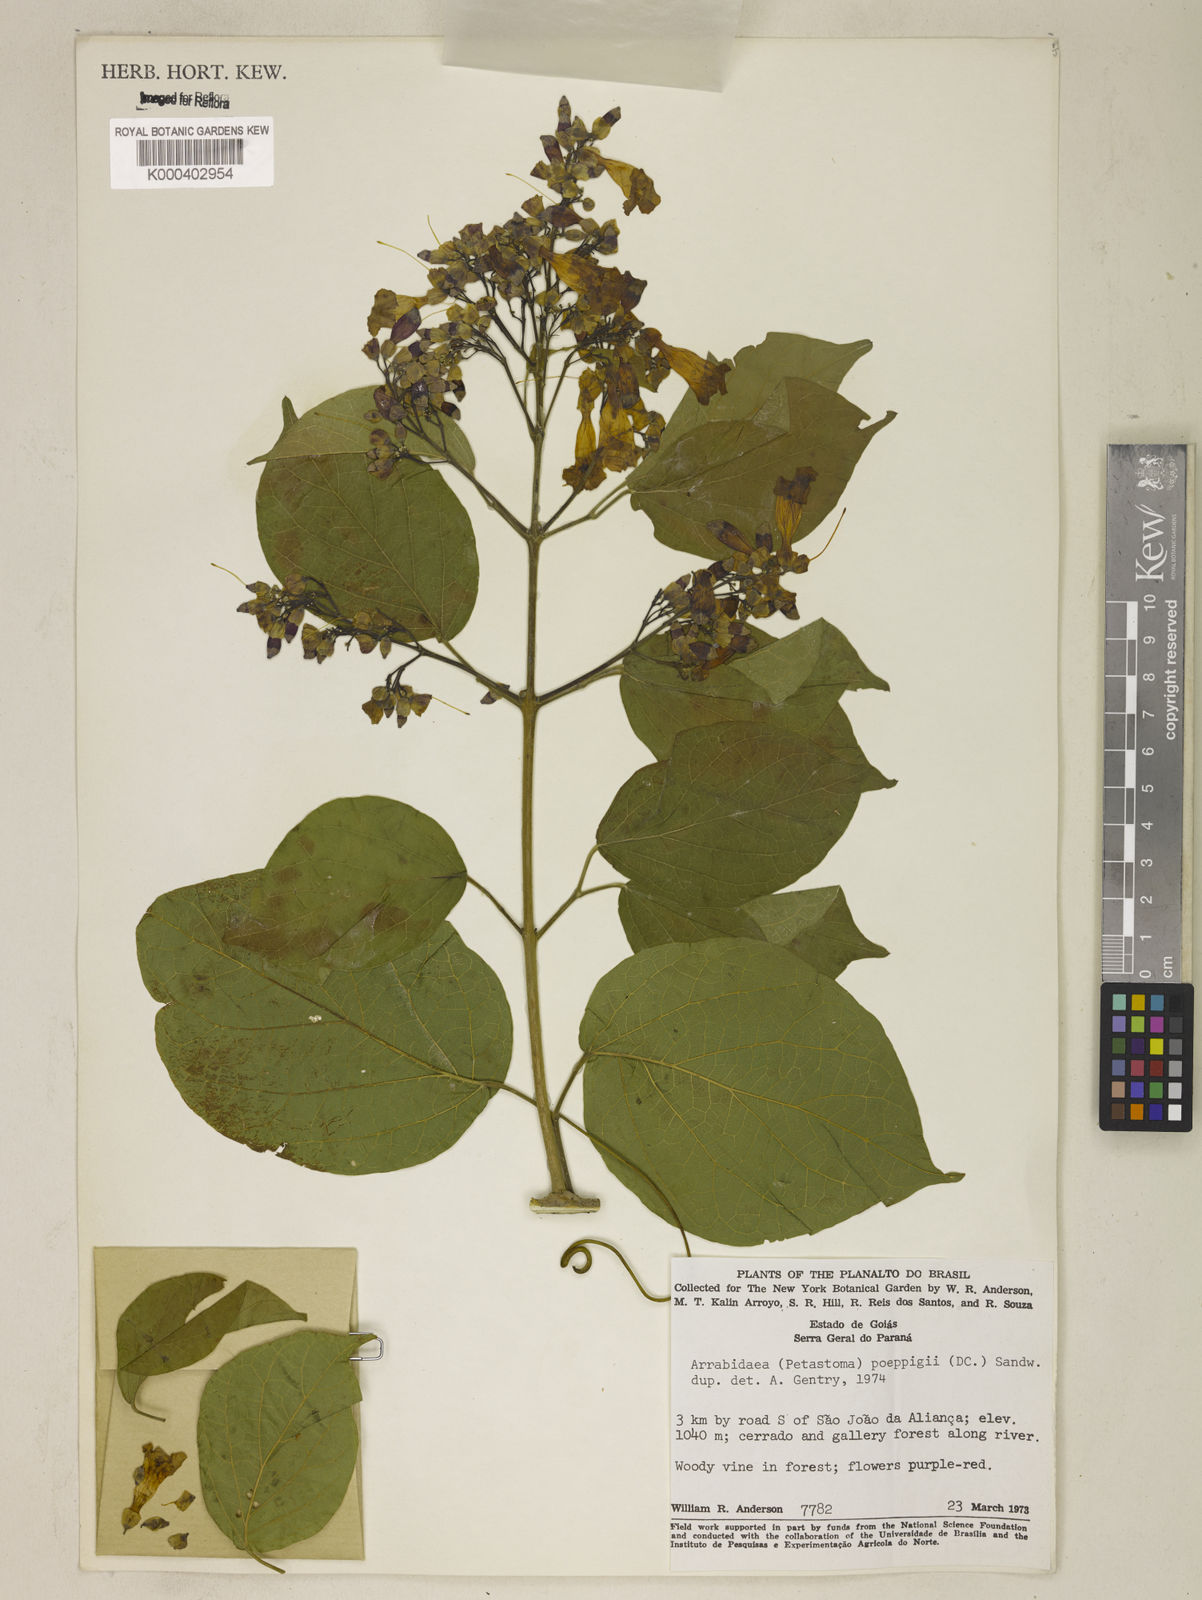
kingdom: Plantae
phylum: Tracheophyta
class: Magnoliopsida
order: Lamiales
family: Bignoniaceae
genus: Fridericia
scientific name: Fridericia poeppigii
